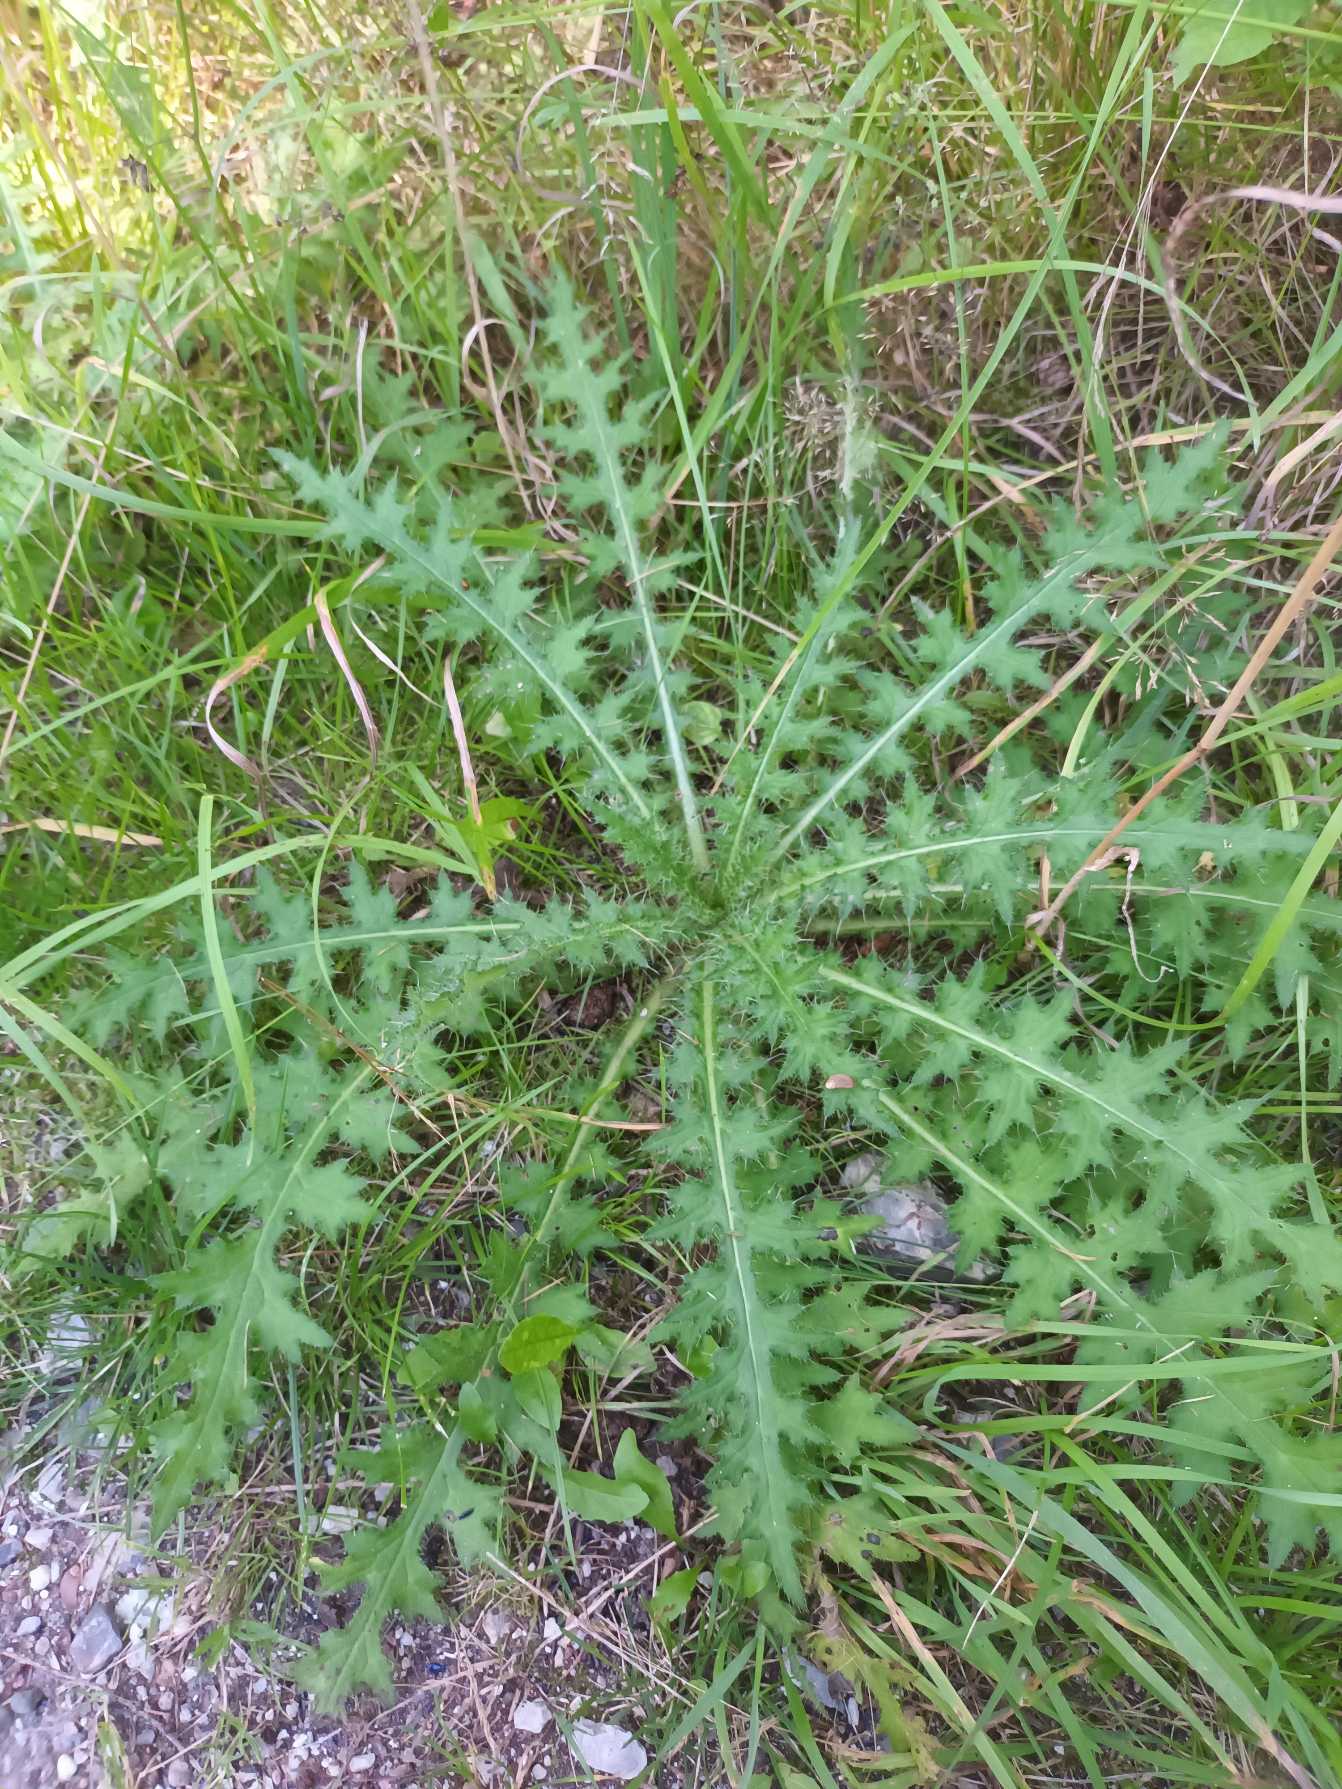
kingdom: Plantae
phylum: Tracheophyta
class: Magnoliopsida
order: Asterales
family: Asteraceae
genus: Cirsium
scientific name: Cirsium palustre
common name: Kær-tidsel
